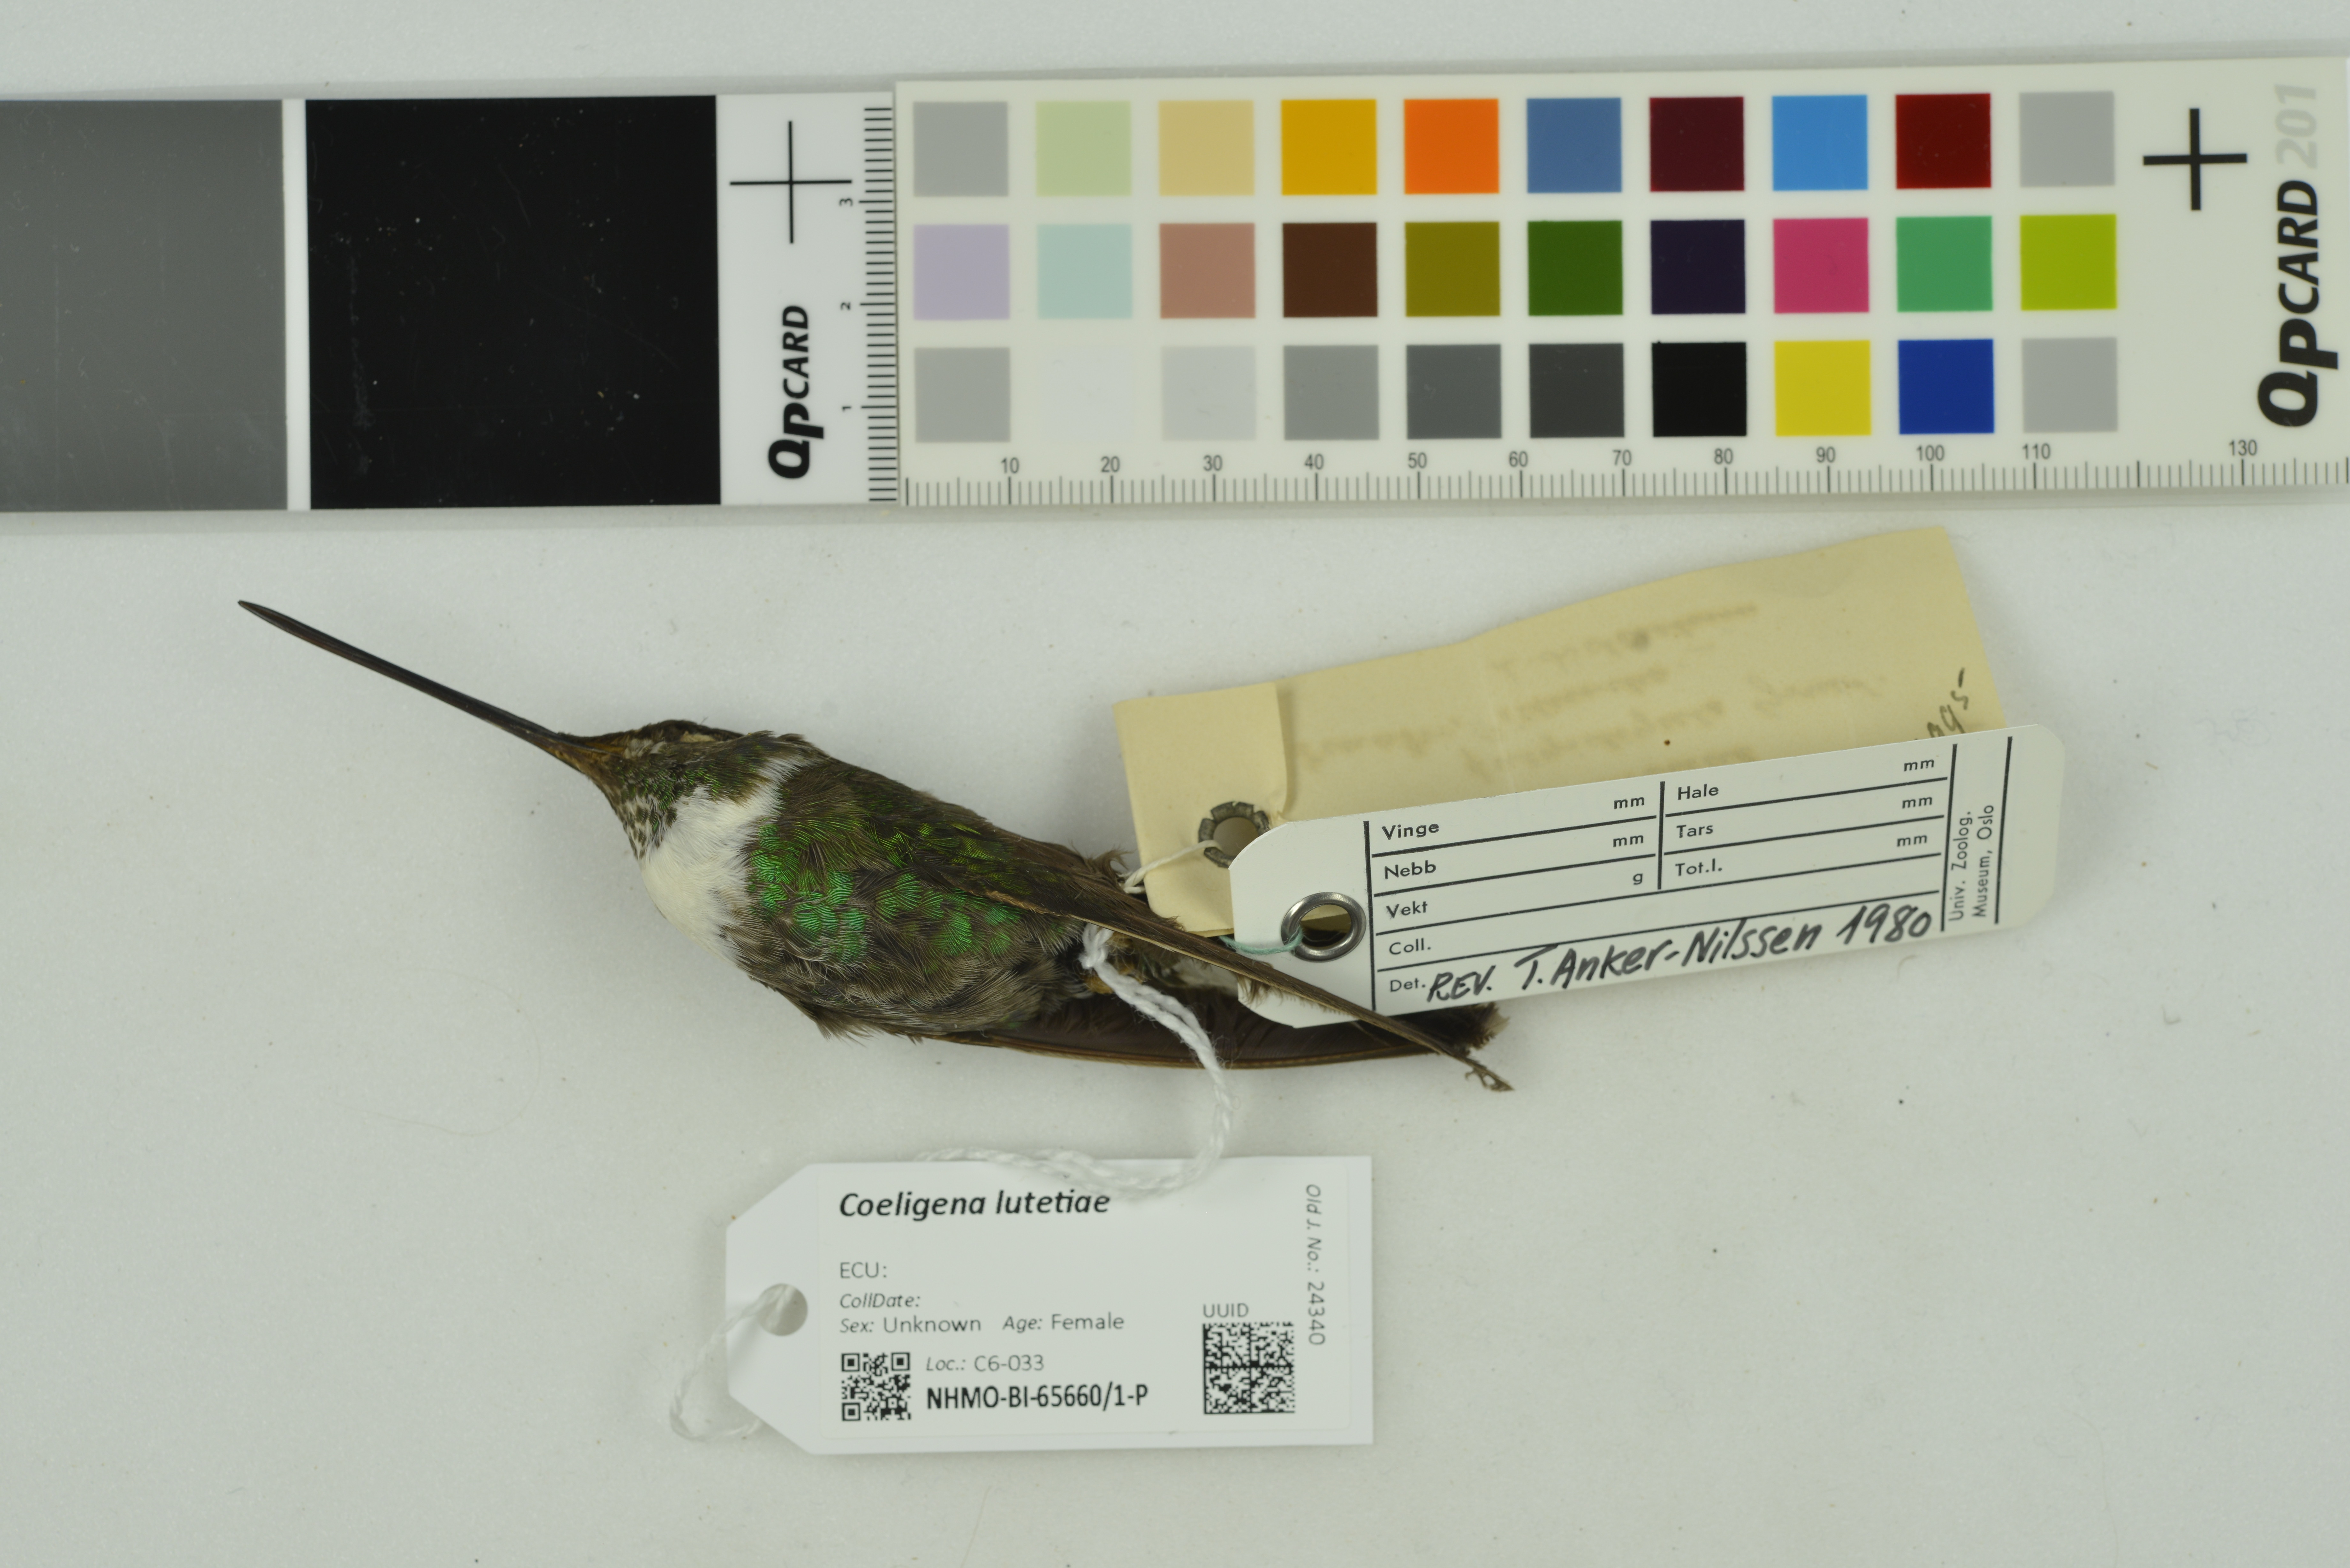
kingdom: Animalia
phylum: Chordata
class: Aves
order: Apodiformes
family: Trochilidae
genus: Coeligena
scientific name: Coeligena lutetiae
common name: Buff-winged starfrontlet
